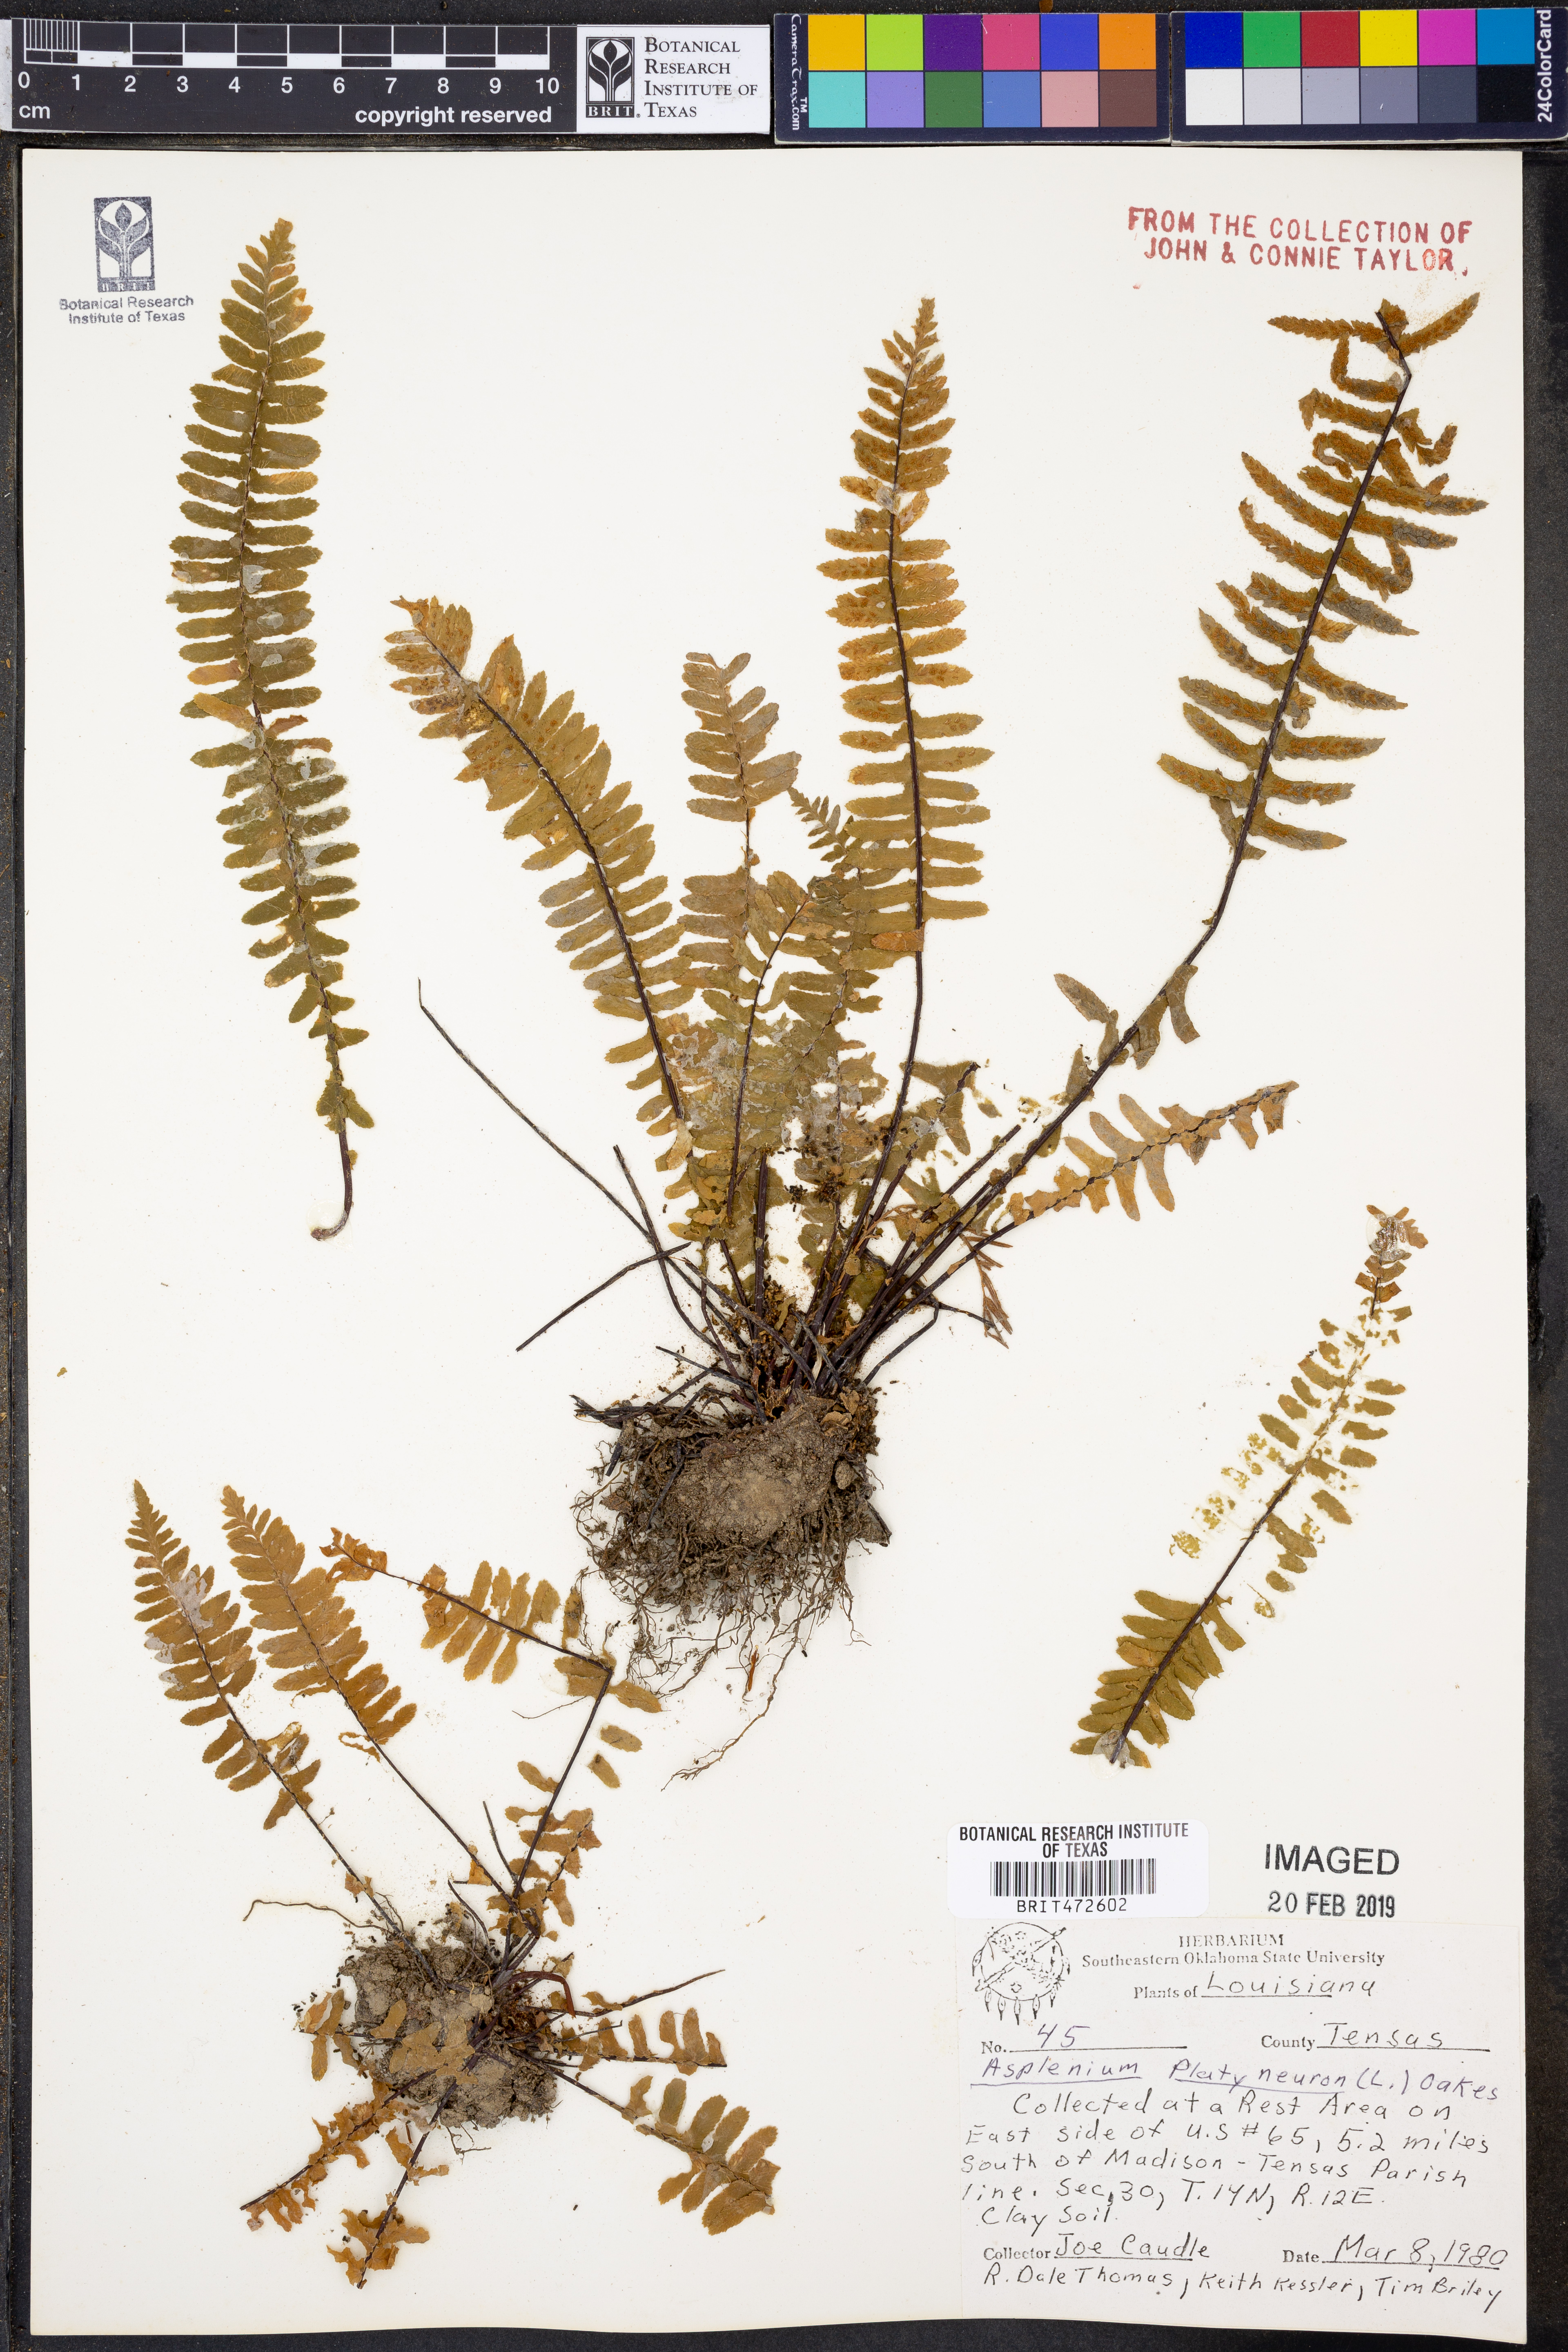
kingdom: Plantae
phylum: Tracheophyta
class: Polypodiopsida
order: Polypodiales
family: Aspleniaceae
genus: Asplenium
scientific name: Asplenium platyneuron
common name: Ebony spleenwort
